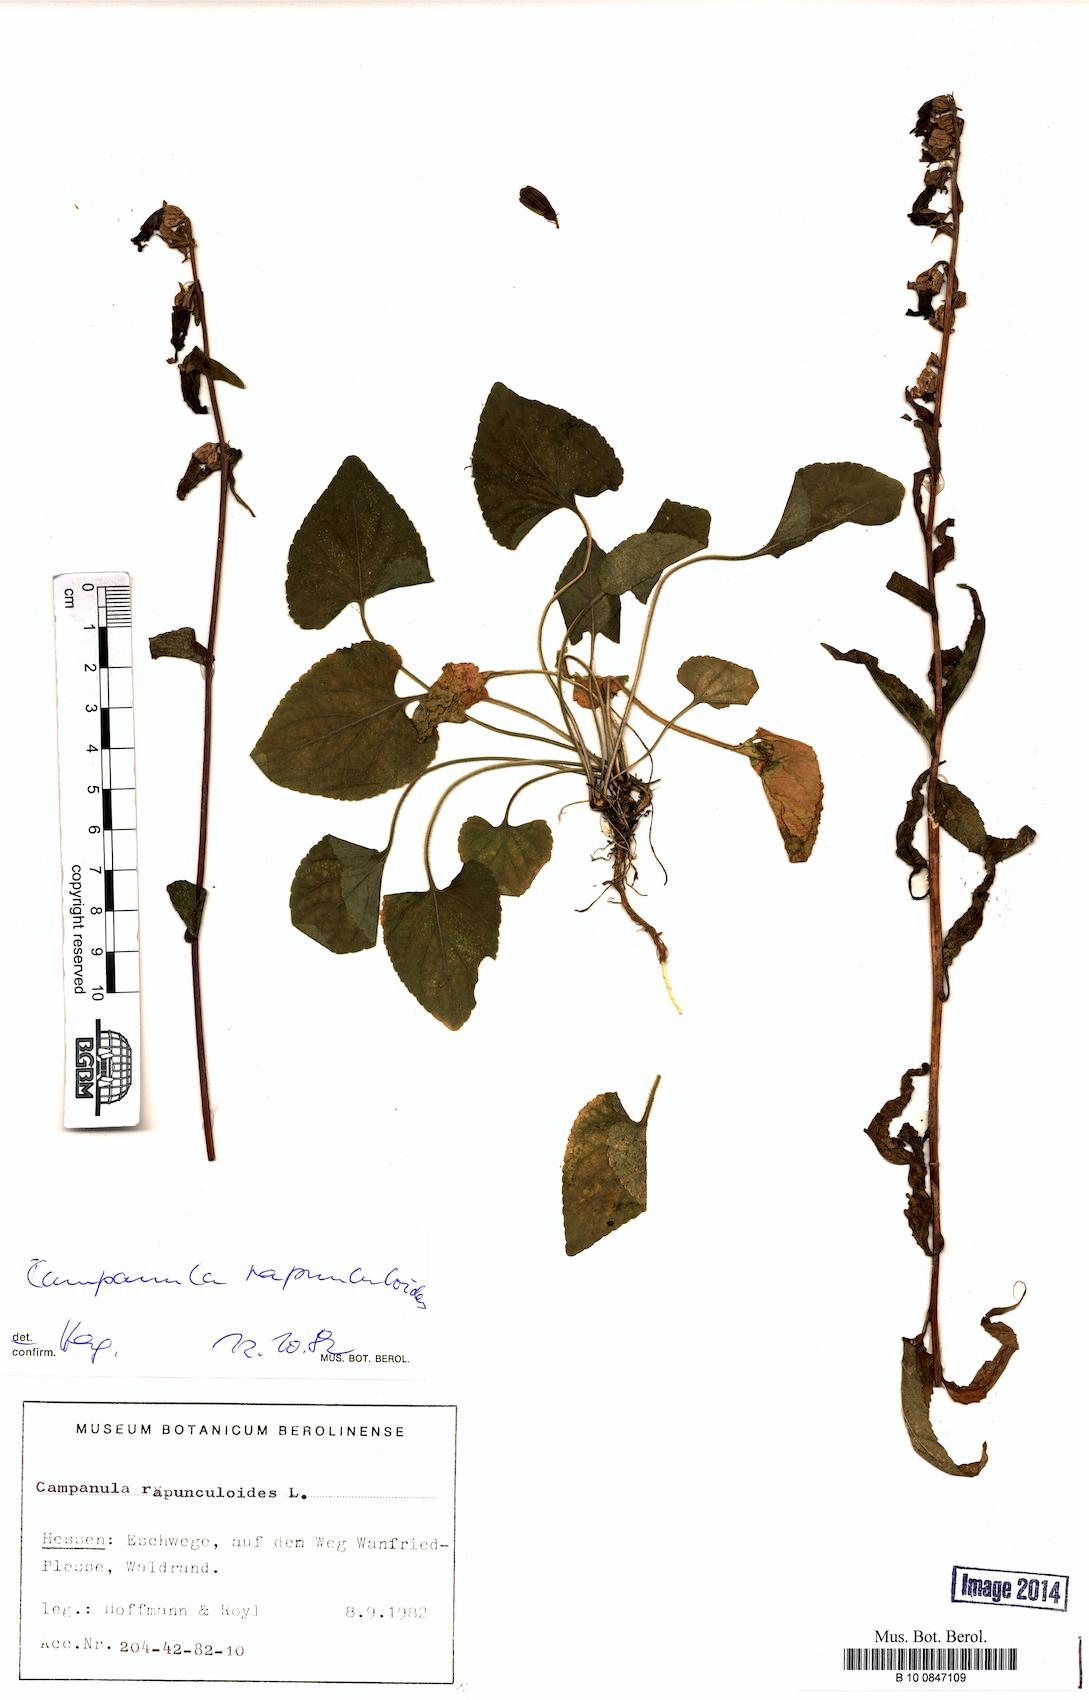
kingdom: Plantae
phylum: Tracheophyta
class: Magnoliopsida
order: Asterales
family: Campanulaceae
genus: Campanula
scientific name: Campanula rapunculoides
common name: Creeping bellflower
